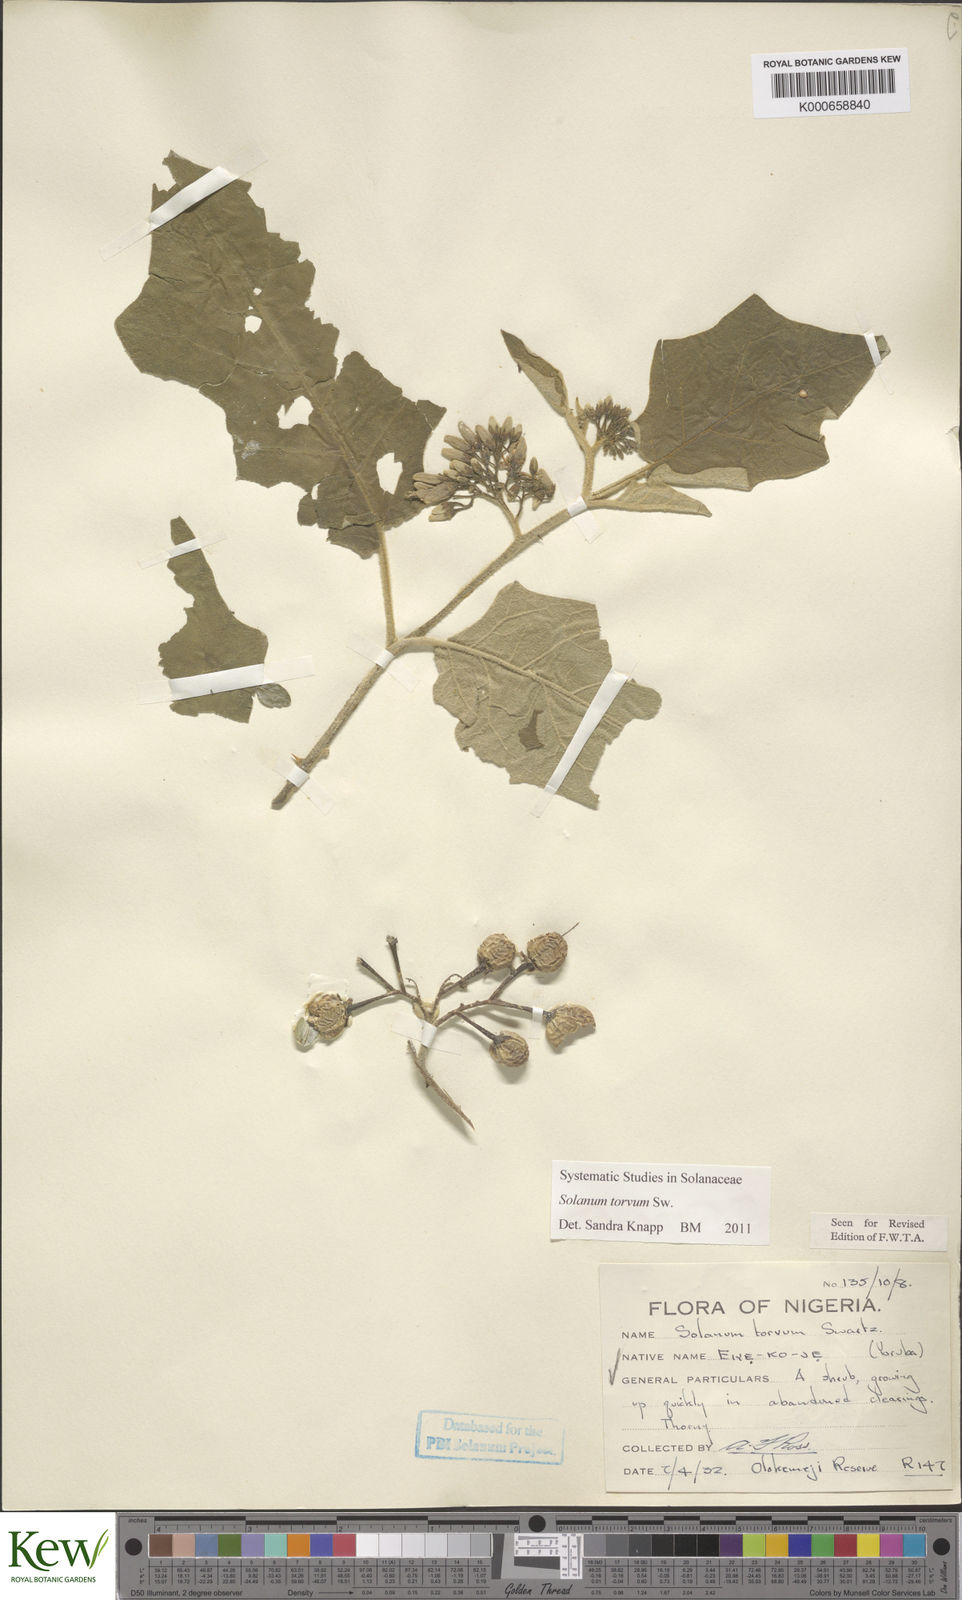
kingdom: Plantae
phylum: Tracheophyta
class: Magnoliopsida
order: Solanales
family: Solanaceae
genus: Solanum
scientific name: Solanum torvum
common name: Turkey berry
